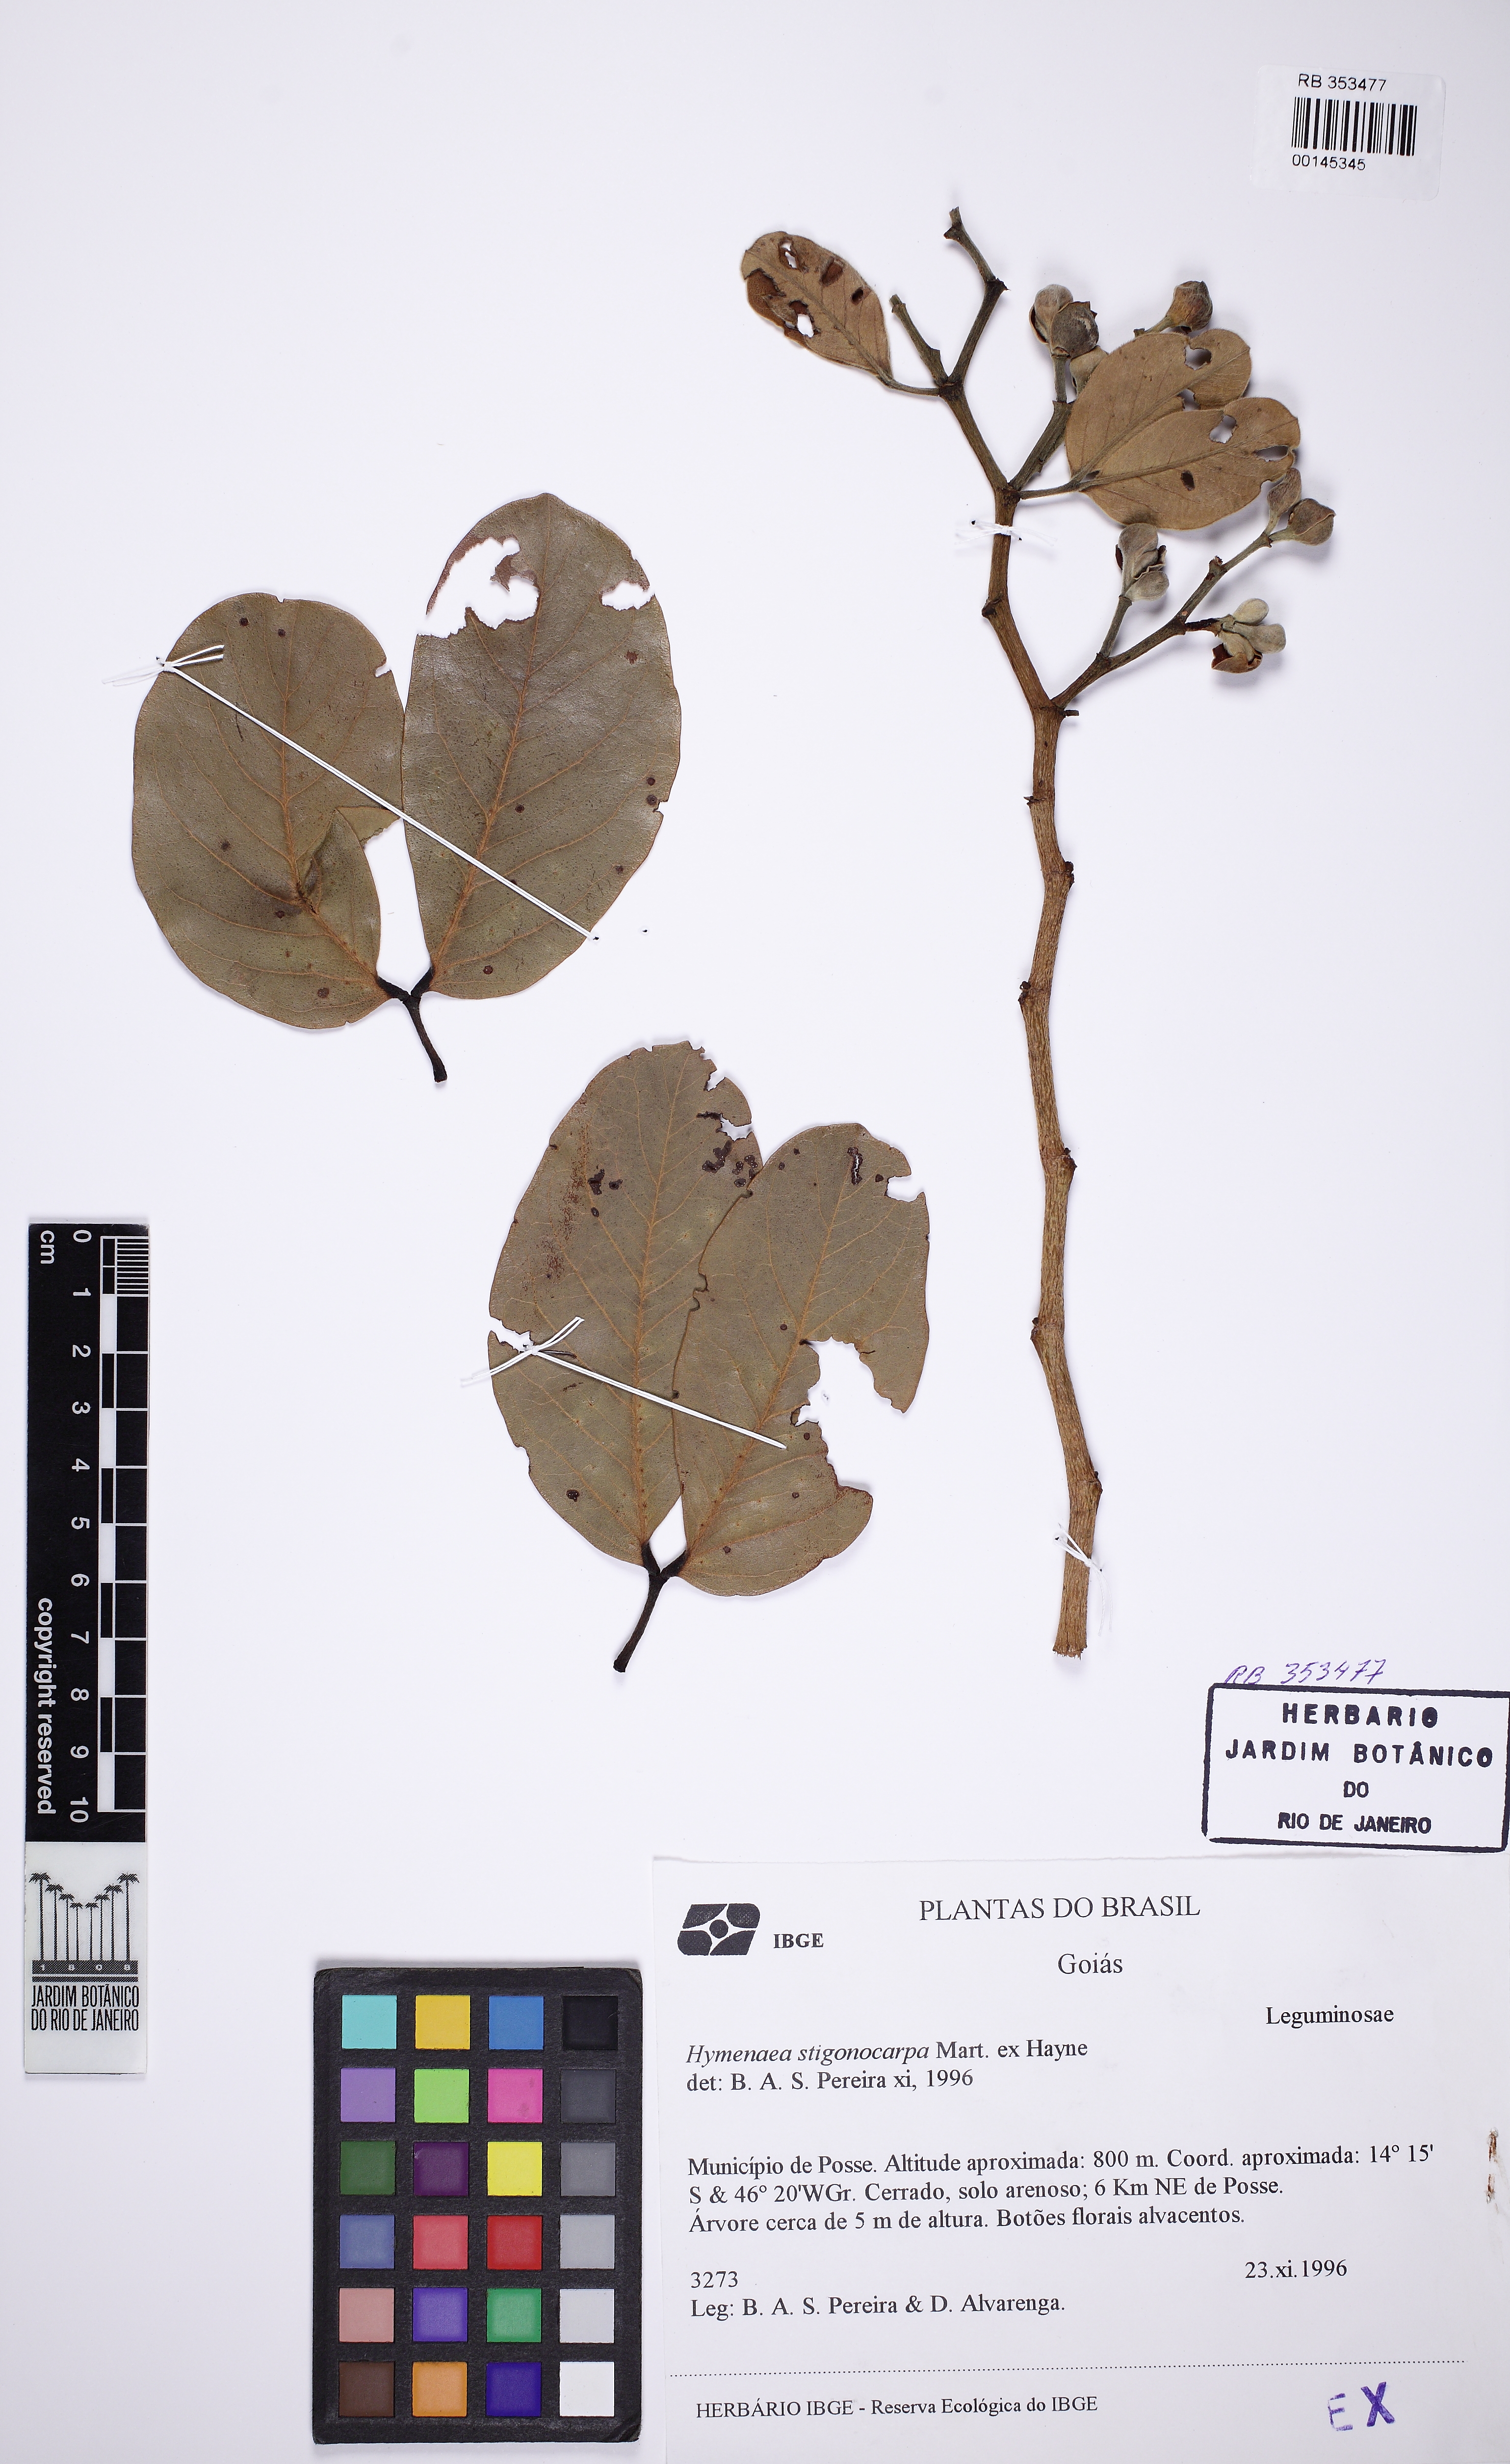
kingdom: Plantae
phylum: Tracheophyta
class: Magnoliopsida
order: Fabales
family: Fabaceae
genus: Hymenaea
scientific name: Hymenaea stigonocarpa
